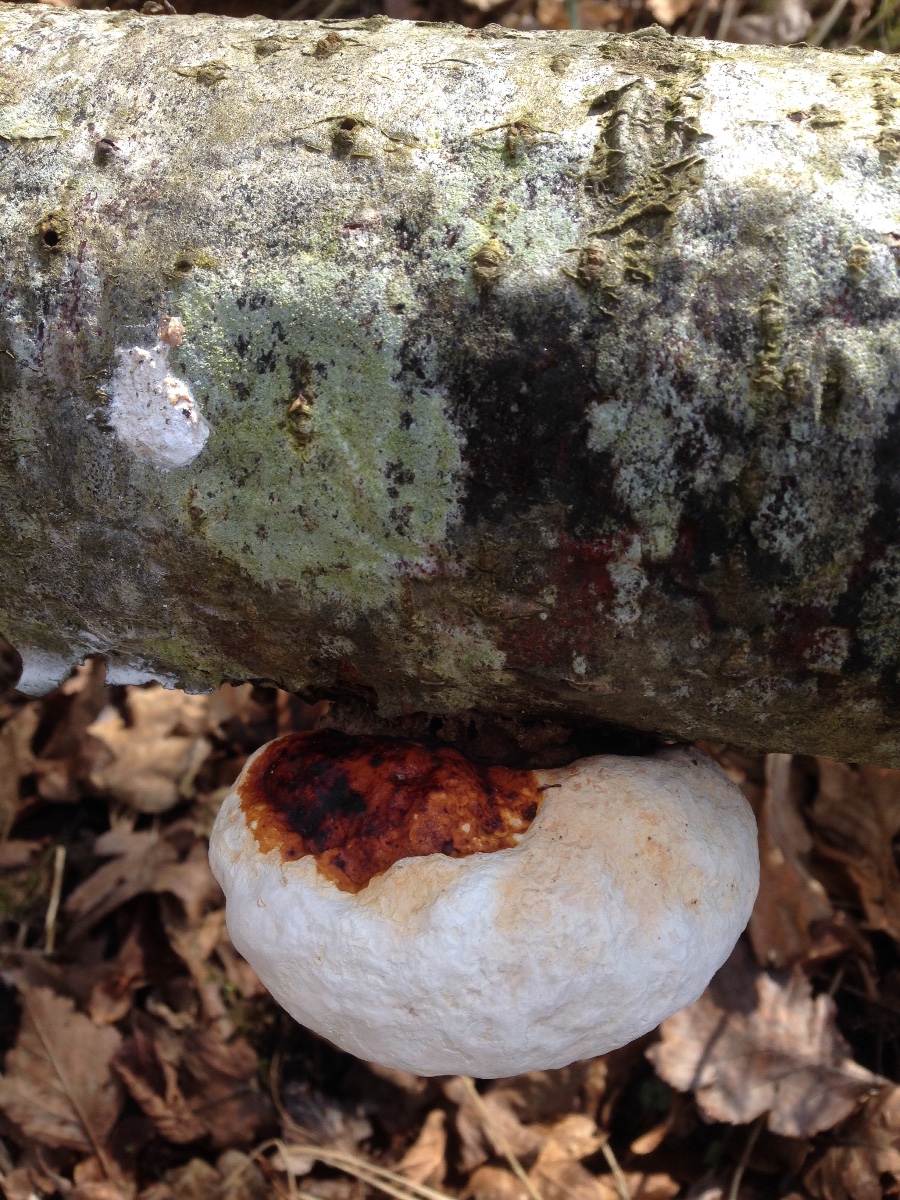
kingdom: Fungi
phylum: Basidiomycota
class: Agaricomycetes
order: Polyporales
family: Fomitopsidaceae
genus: Fomitopsis
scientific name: Fomitopsis pinicola
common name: randbæltet hovporesvamp
